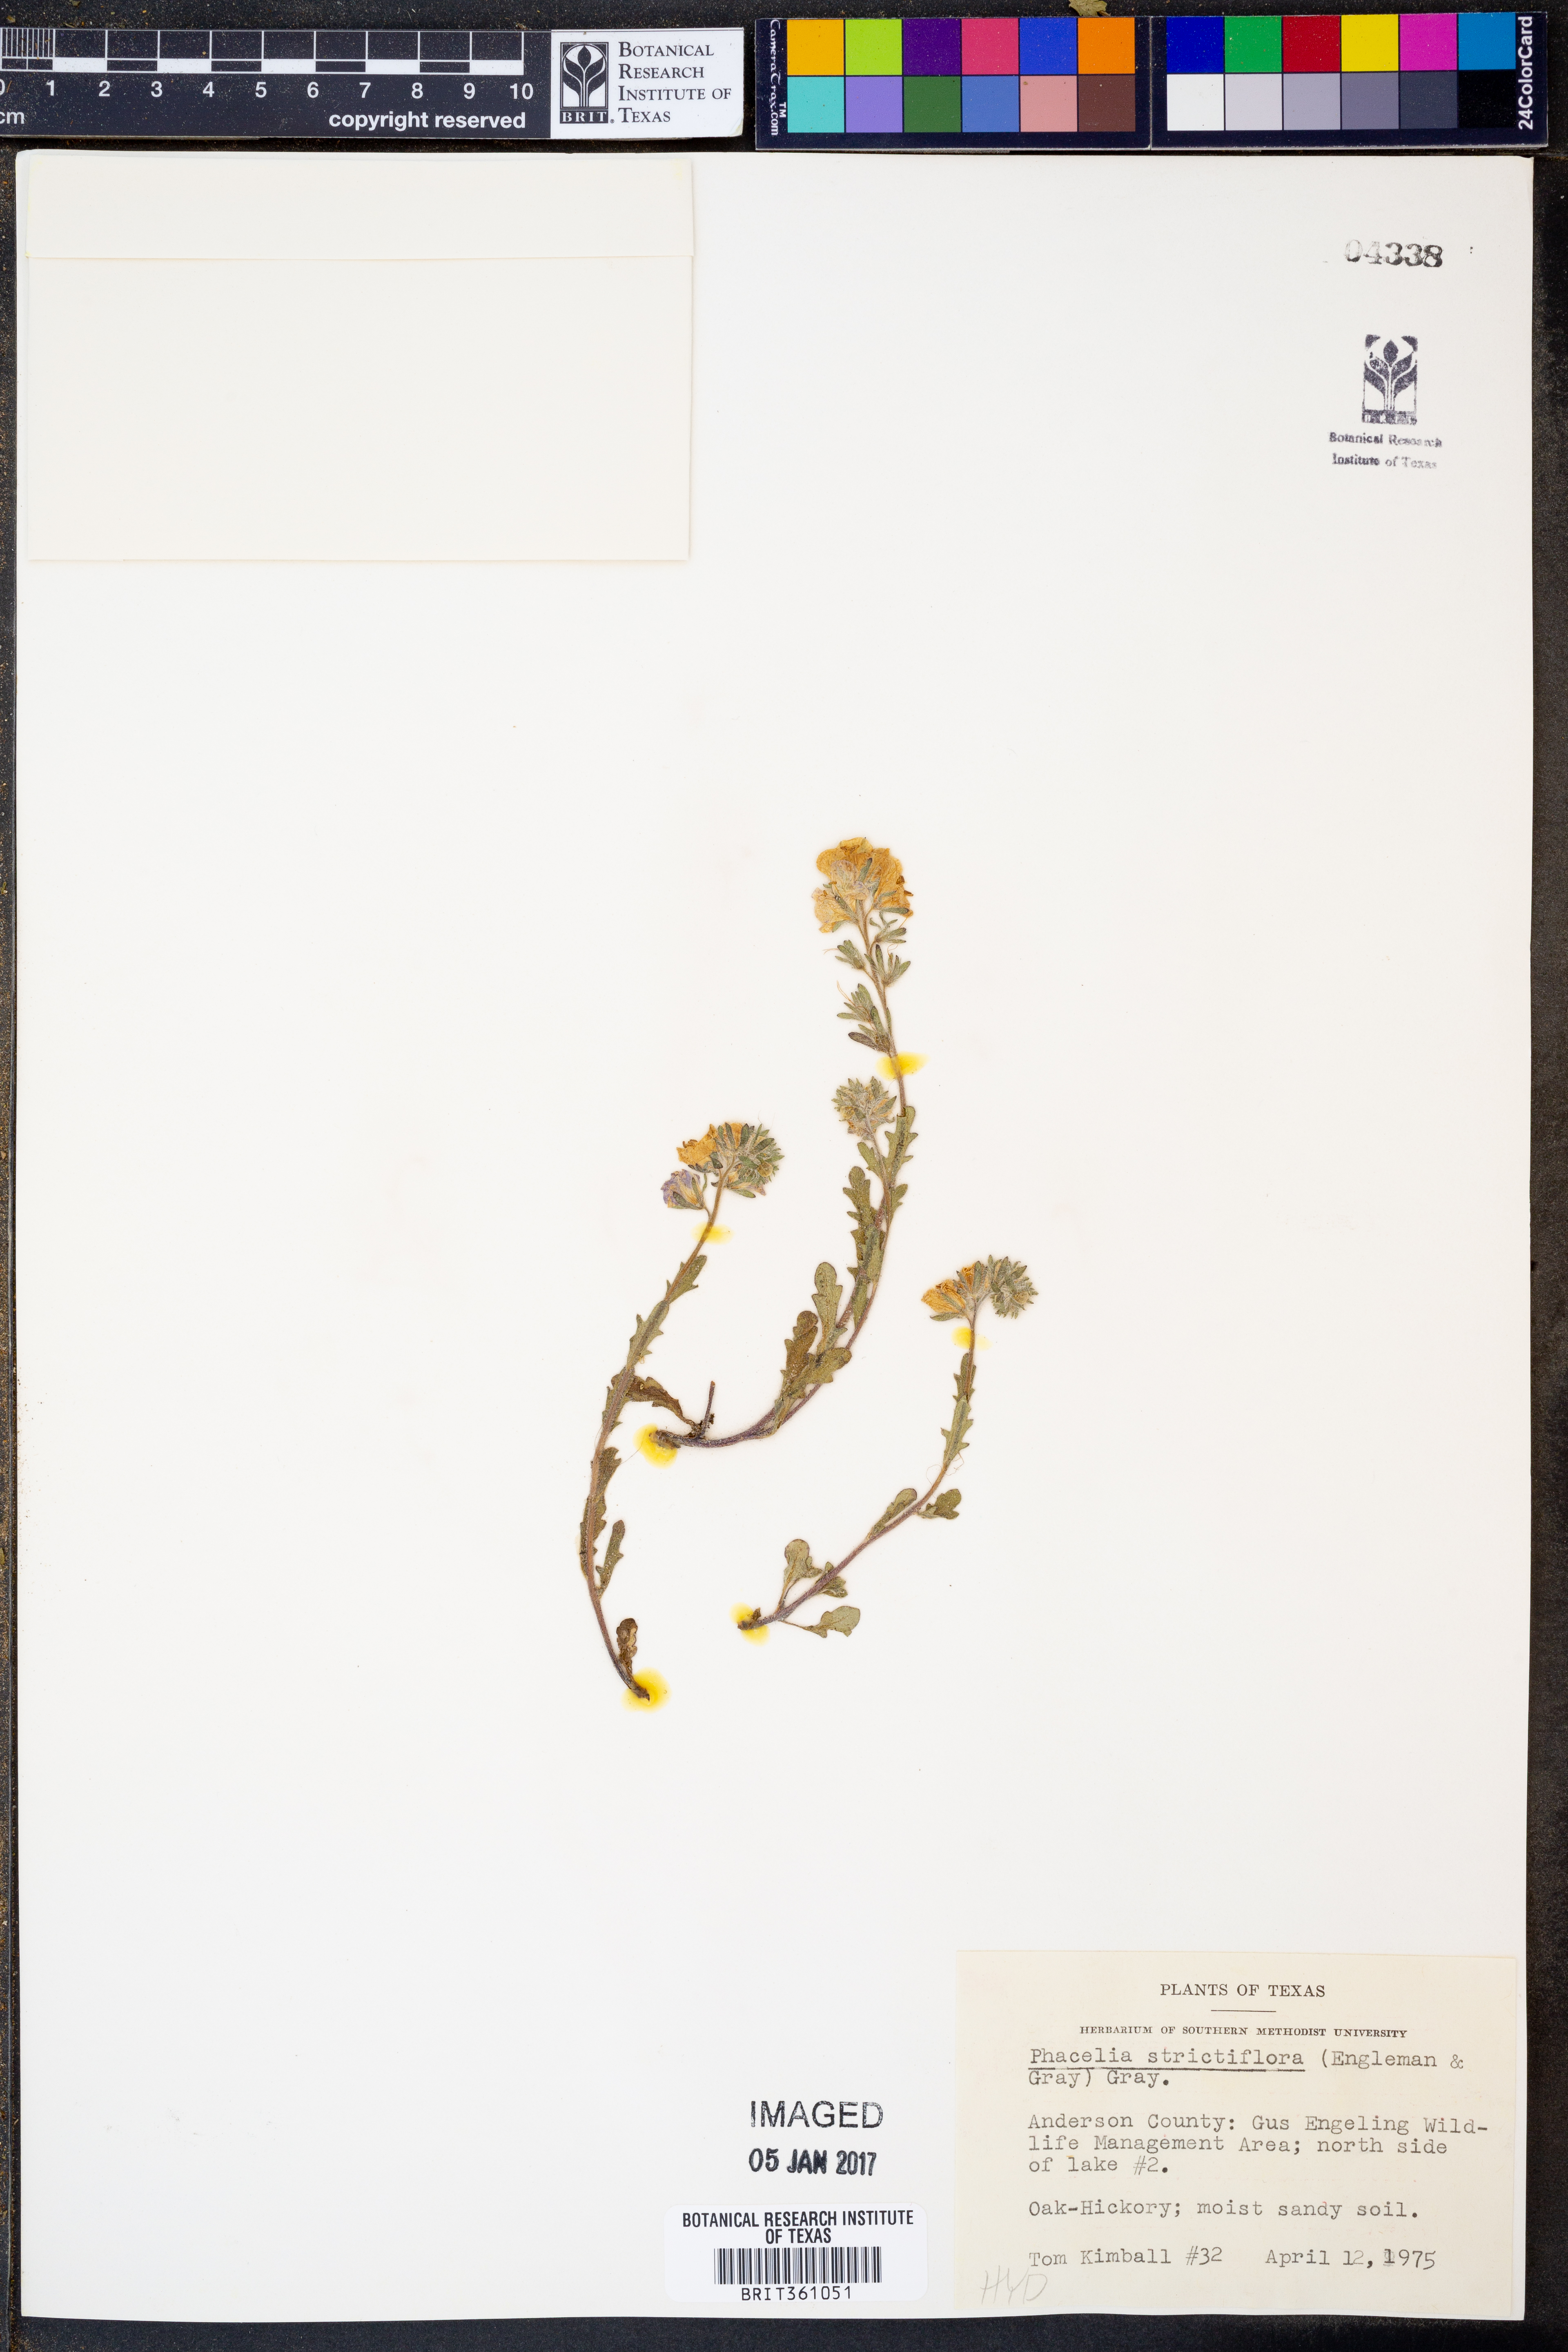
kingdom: Plantae
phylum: Tracheophyta
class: Magnoliopsida
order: Boraginales
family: Hydrophyllaceae
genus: Phacelia
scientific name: Phacelia strictiflora
